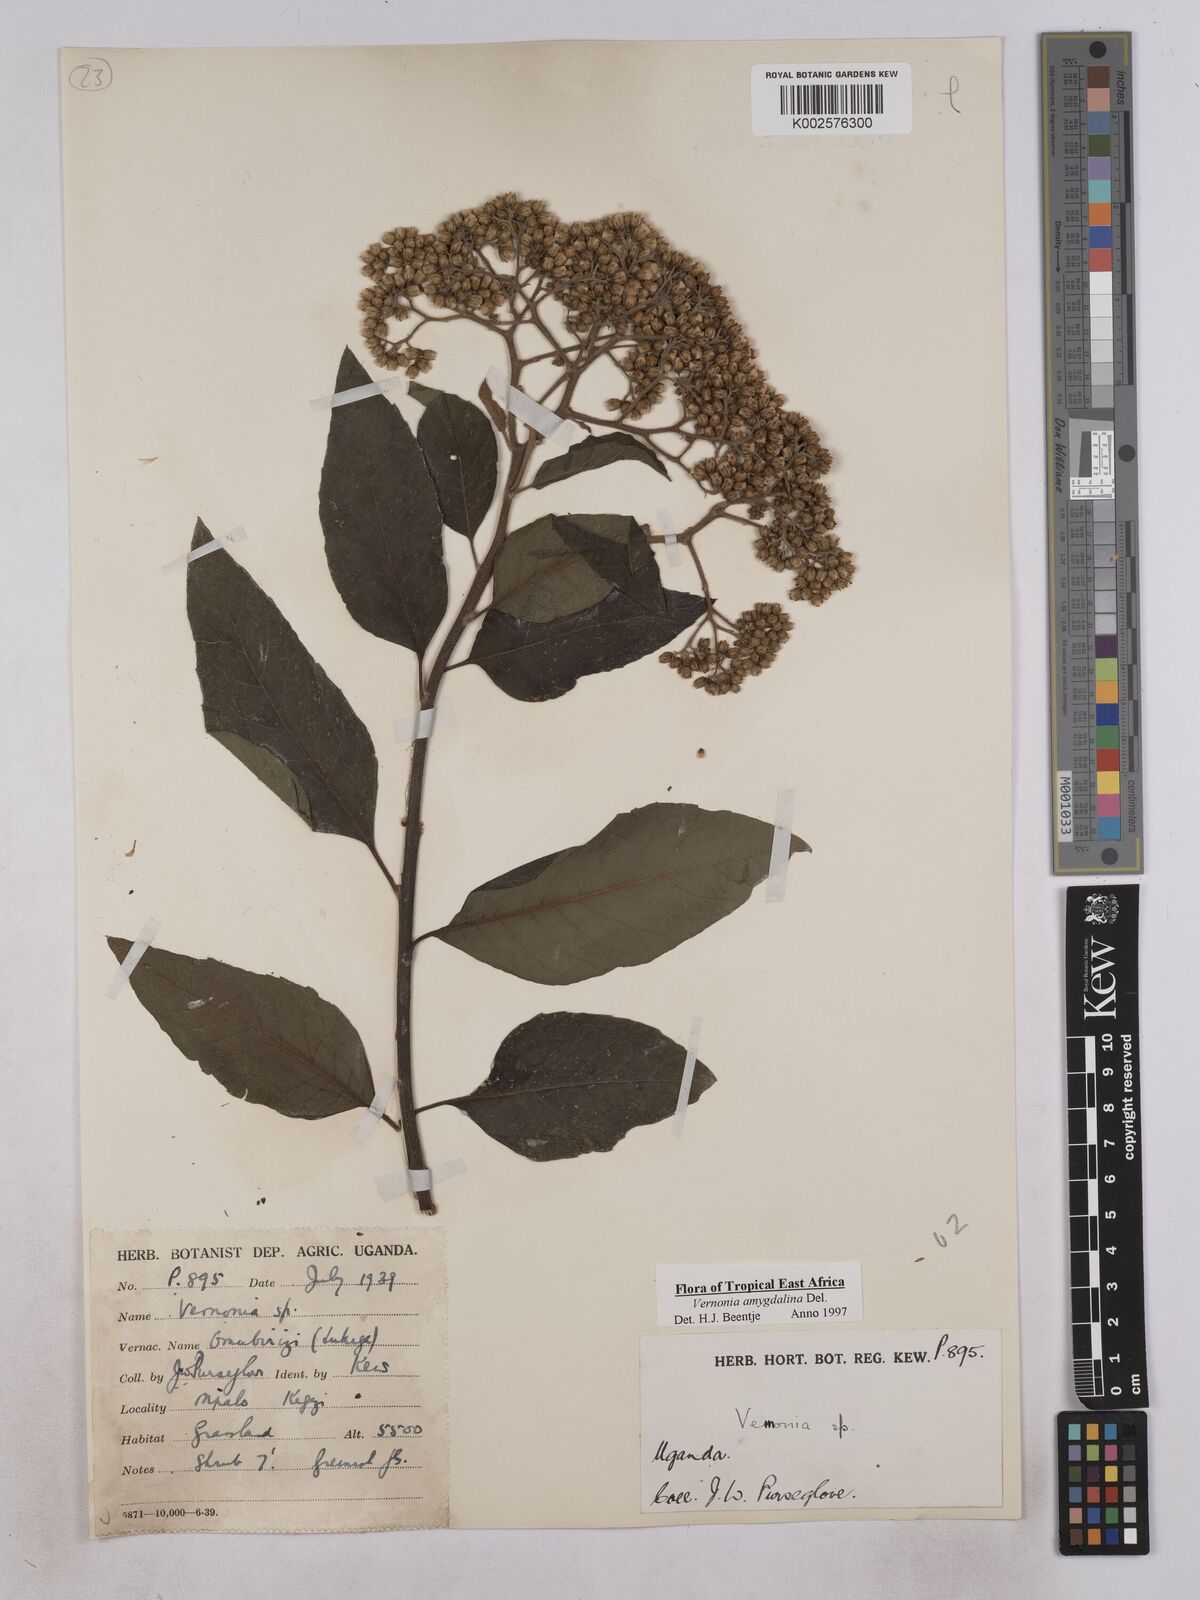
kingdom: Plantae
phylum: Tracheophyta
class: Magnoliopsida
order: Asterales
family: Asteraceae
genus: Gymnanthemum
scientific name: Gymnanthemum amygdalinum
